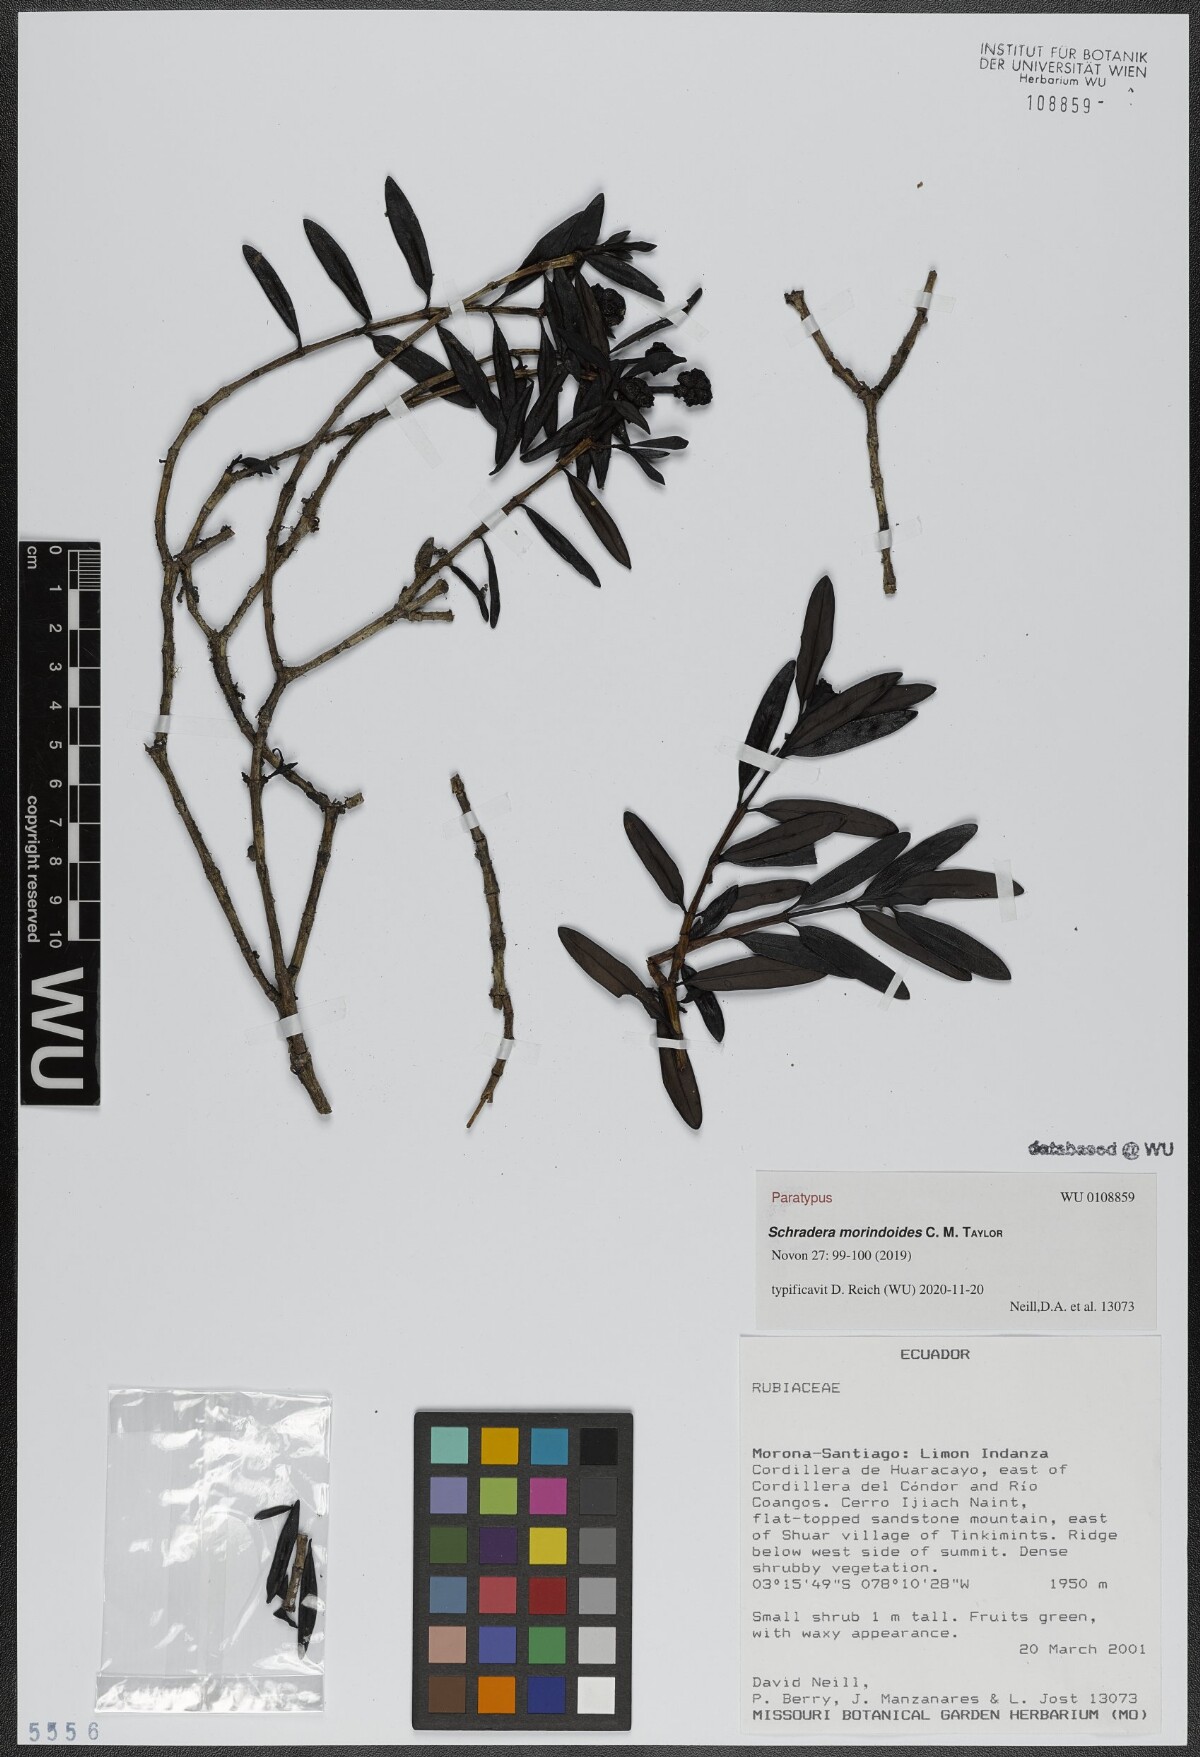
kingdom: Plantae
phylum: Tracheophyta
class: Magnoliopsida
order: Gentianales
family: Rubiaceae
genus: Schradera
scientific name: Schradera morindoides
